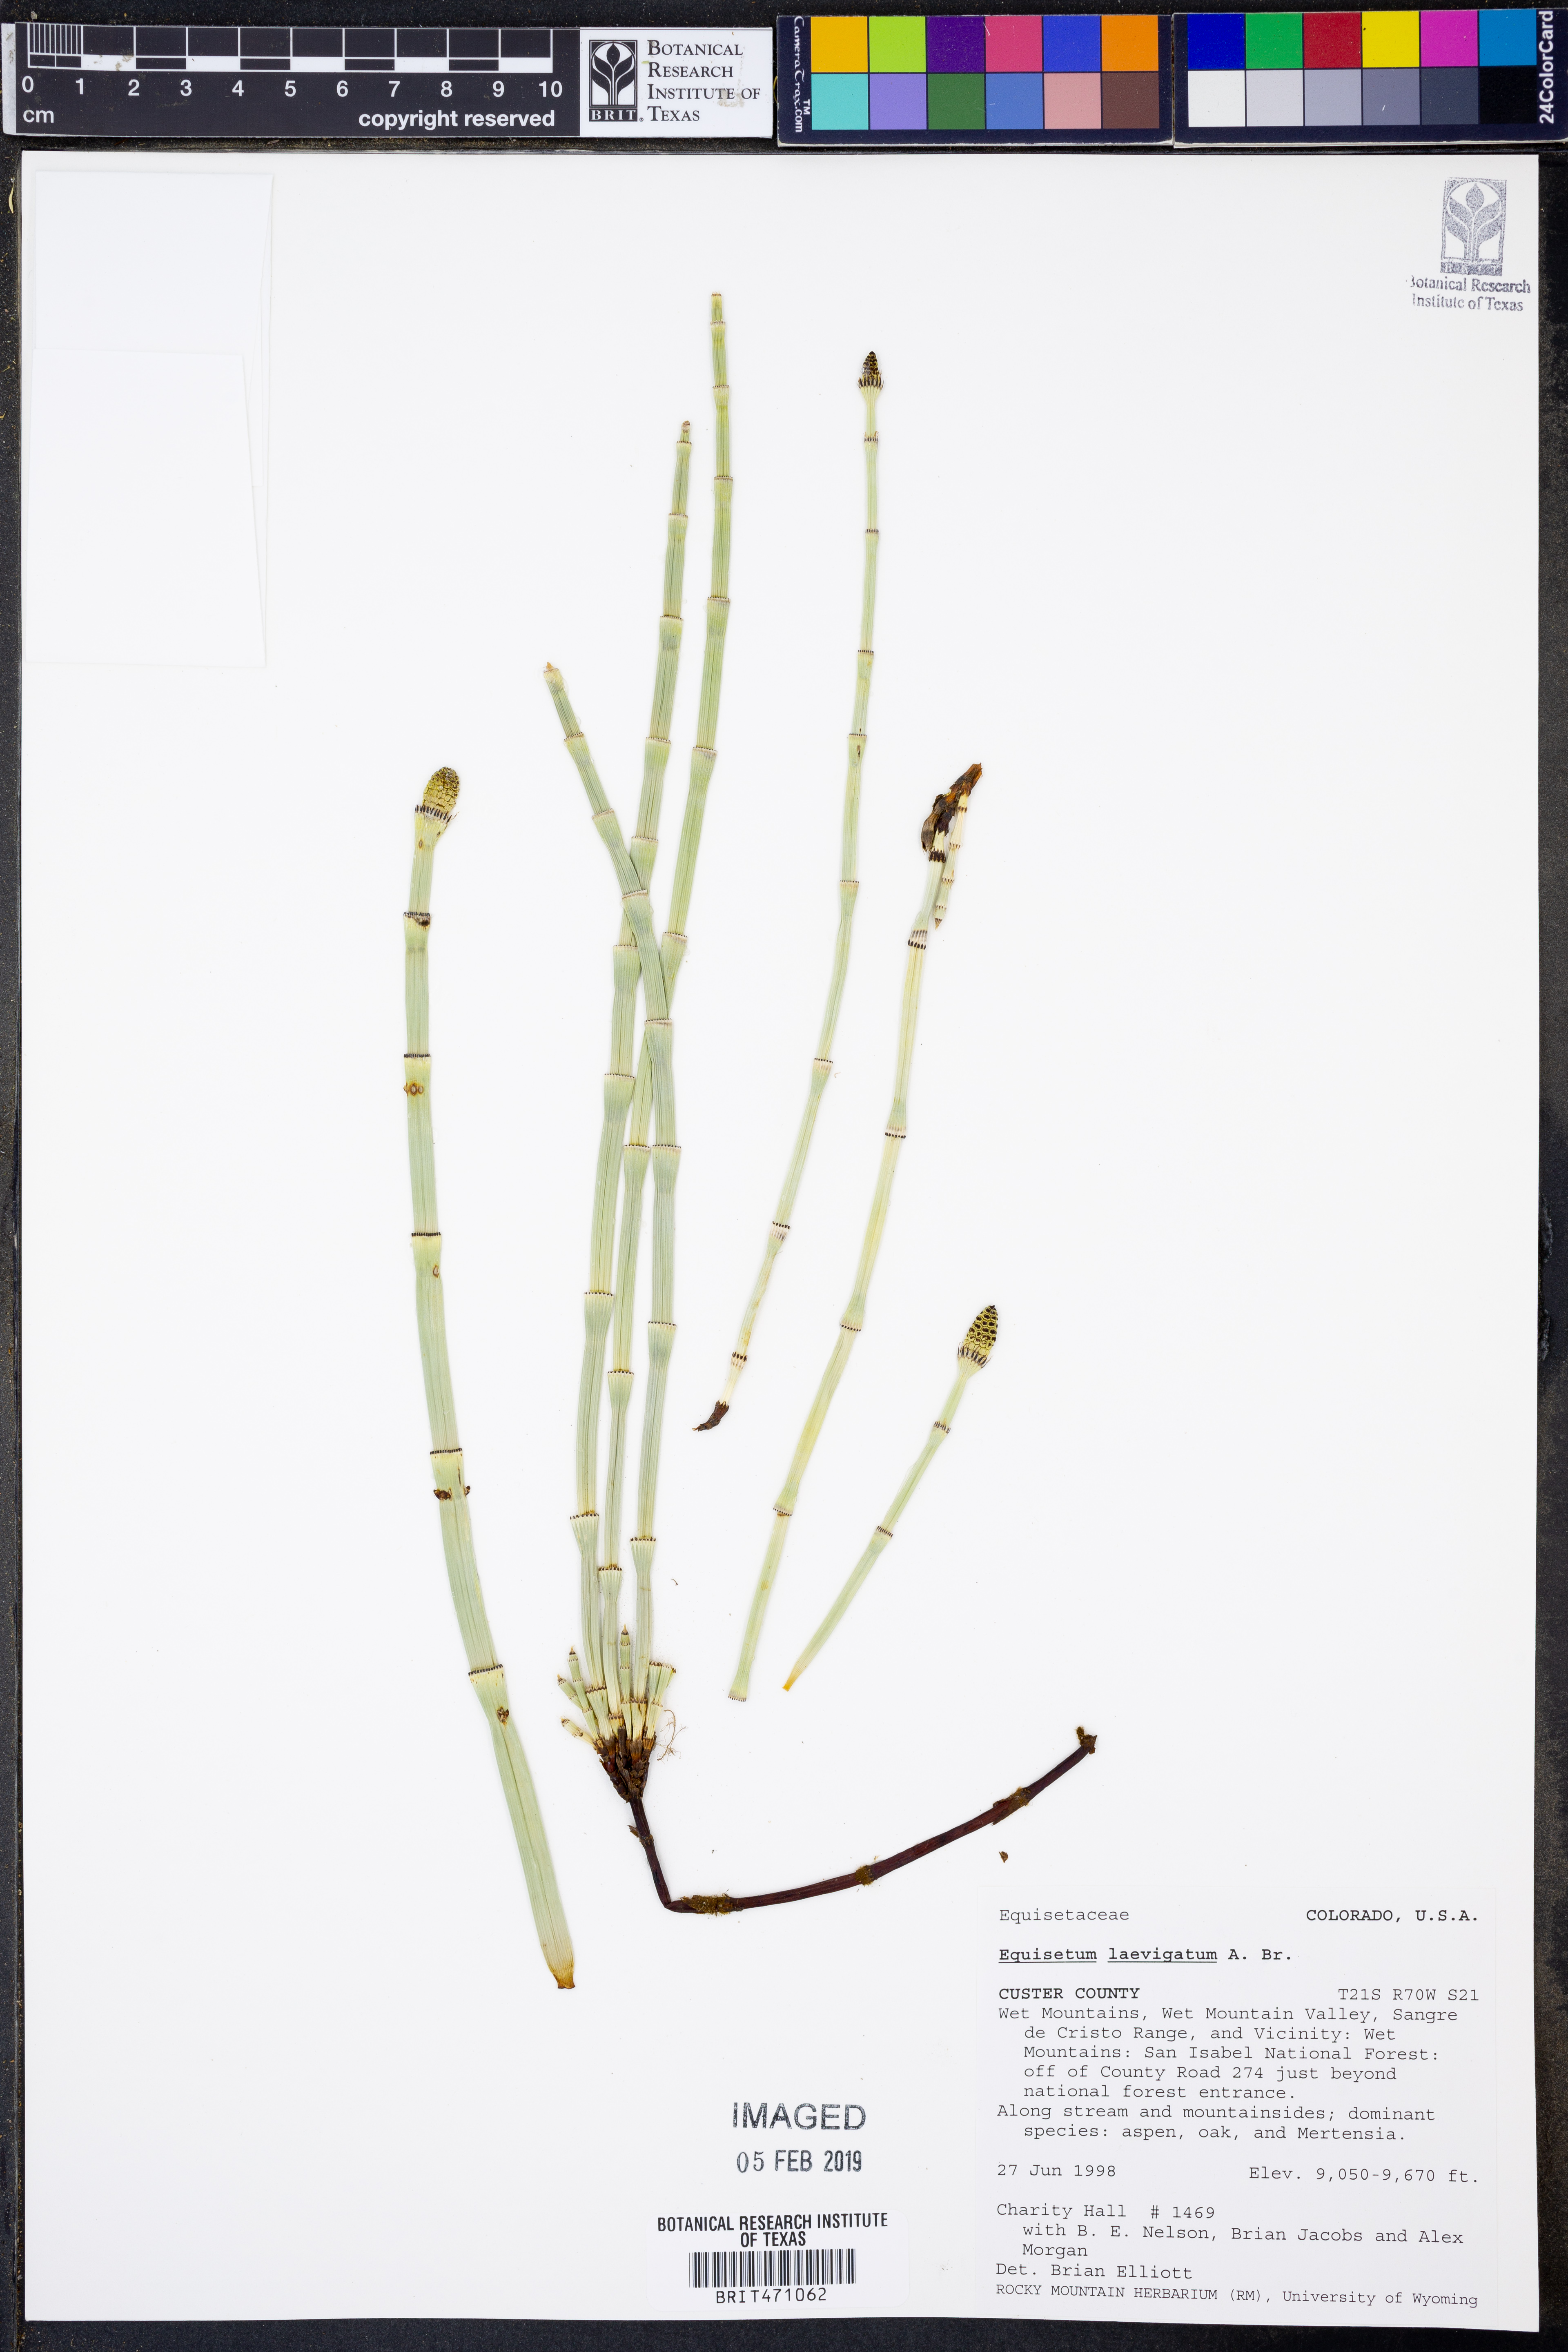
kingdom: Plantae
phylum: Tracheophyta
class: Polypodiopsida
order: Equisetales
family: Equisetaceae
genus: Equisetum
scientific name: Equisetum laevigatum
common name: Smooth scouring-rush
